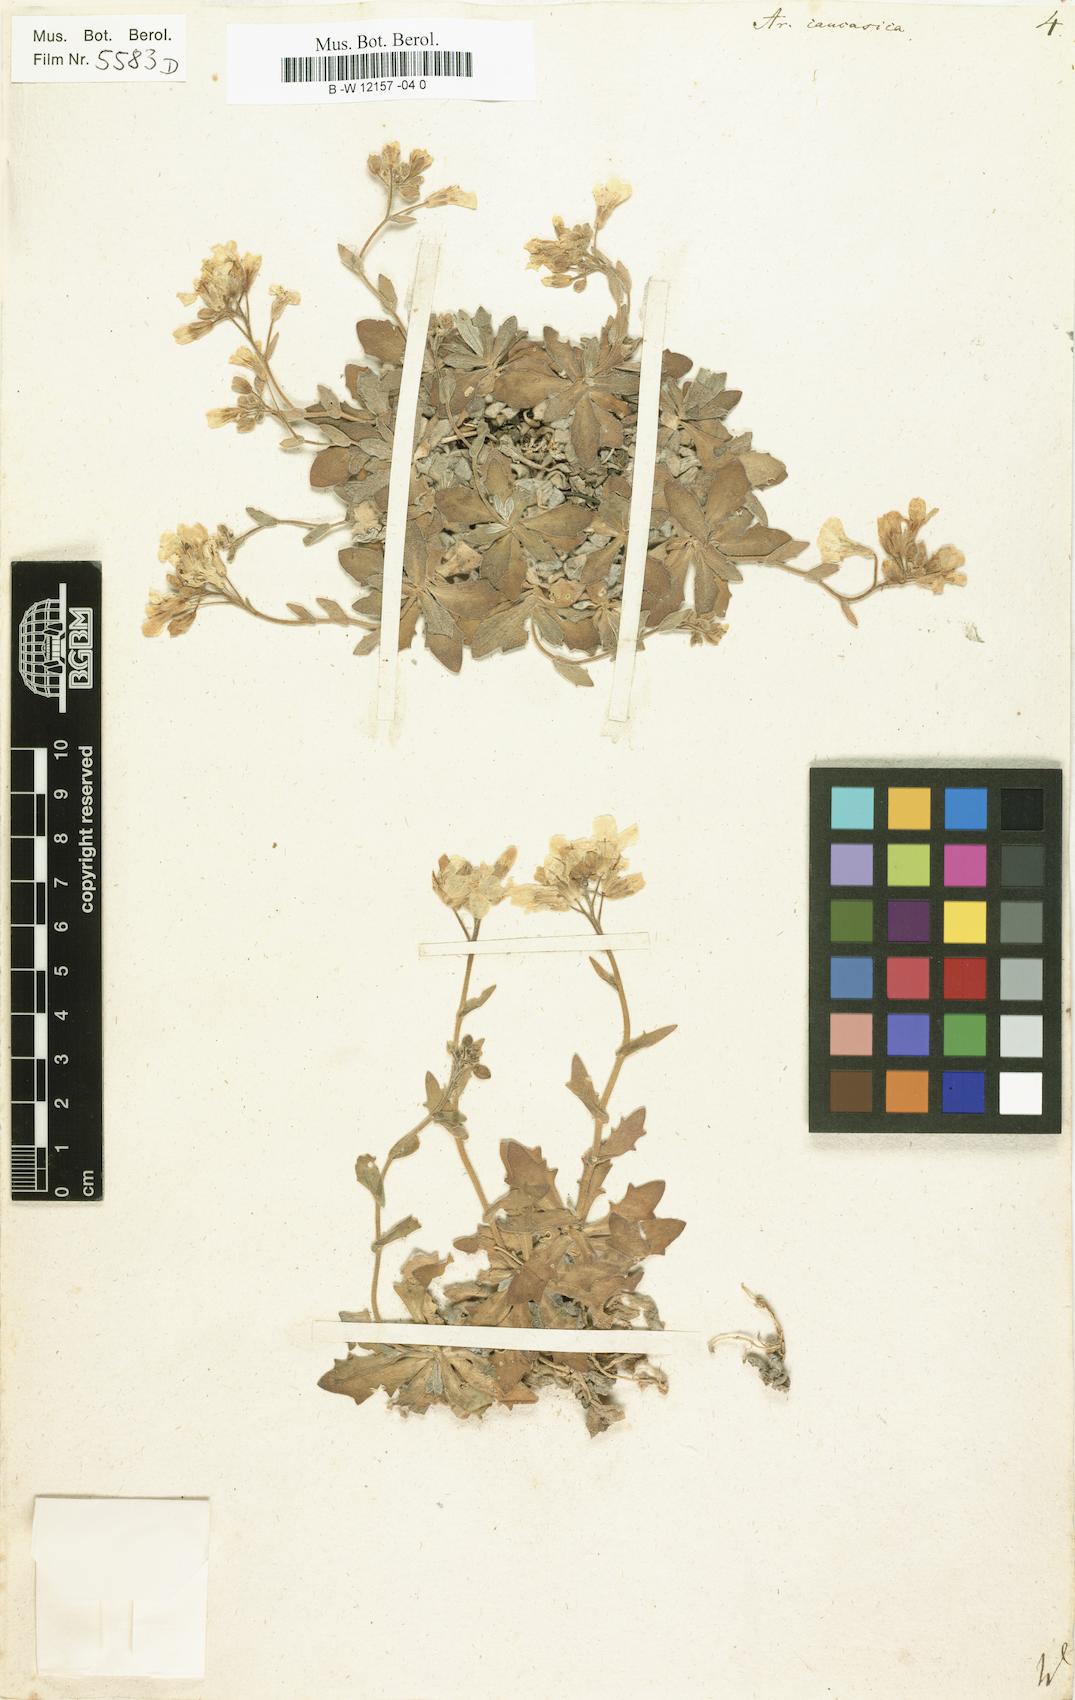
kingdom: Plantae
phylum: Tracheophyta
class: Magnoliopsida
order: Brassicales
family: Brassicaceae
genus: Arabis
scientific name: Arabis caucasica
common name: Gray rockcress
